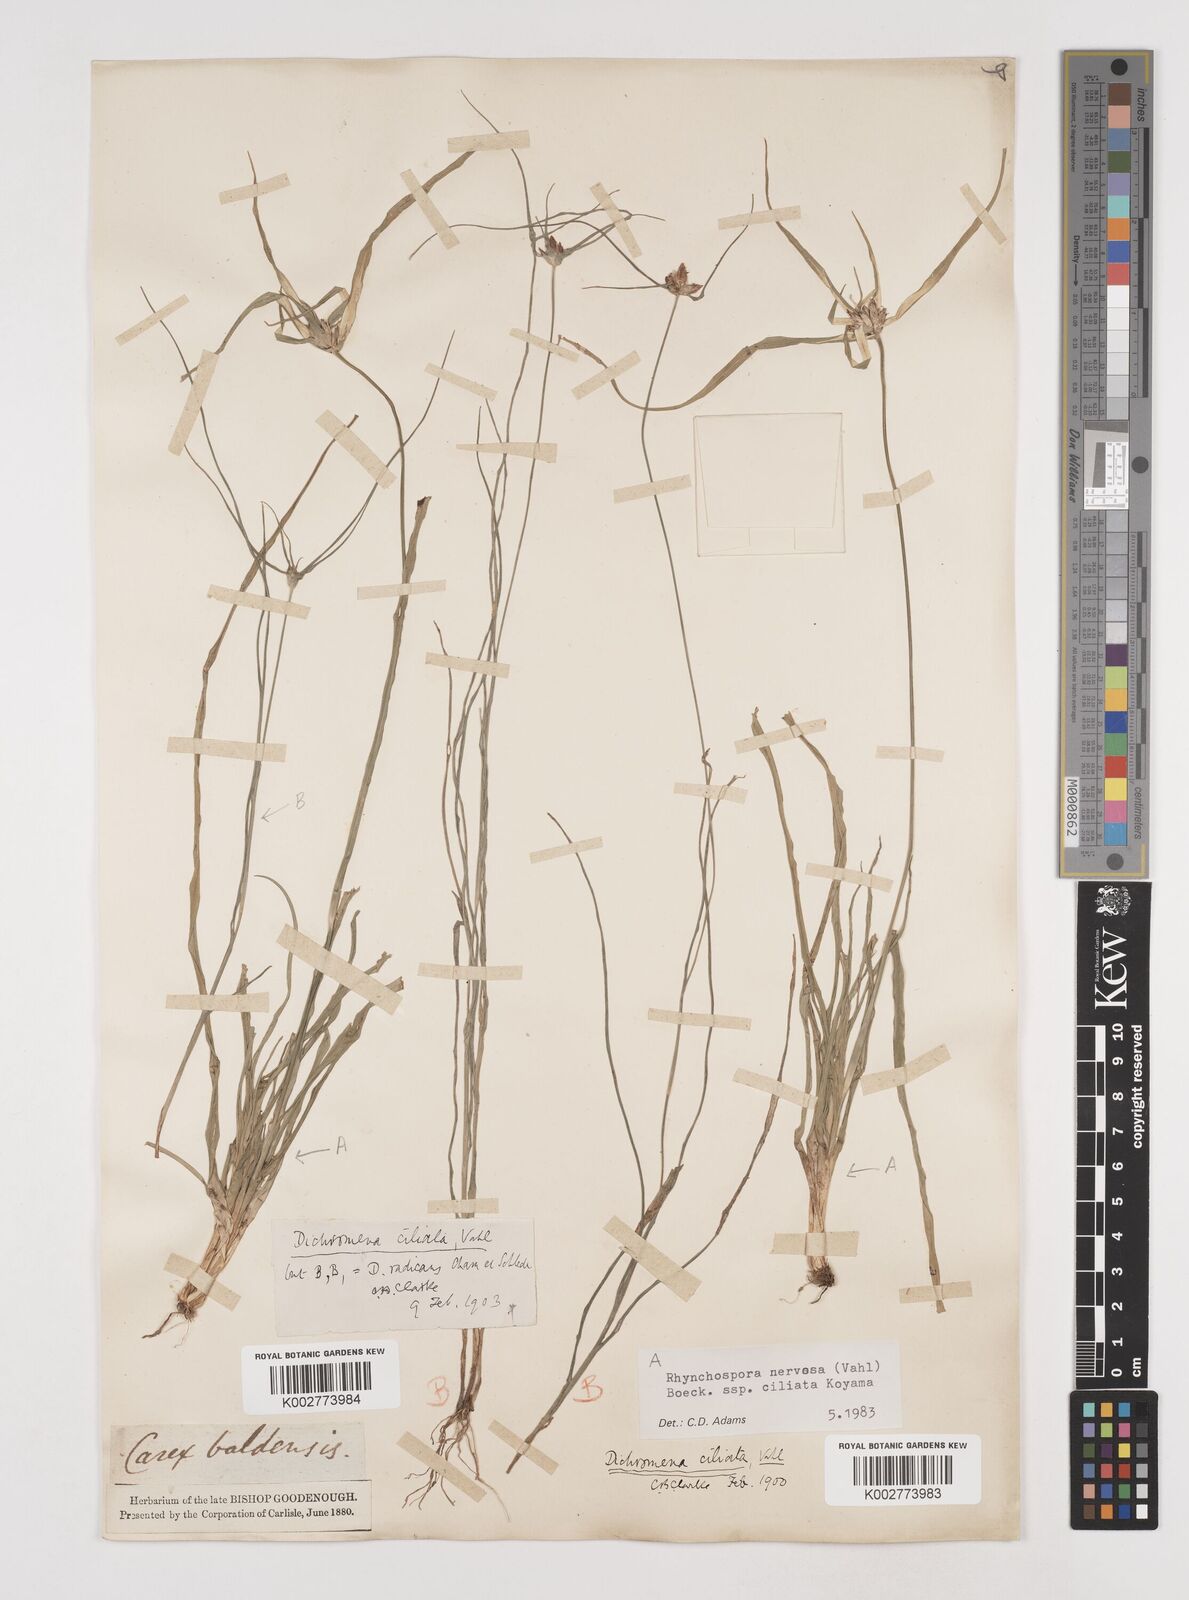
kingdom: Plantae
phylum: Tracheophyta
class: Liliopsida
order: Poales
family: Cyperaceae
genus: Rhynchospora
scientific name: Rhynchospora pura
